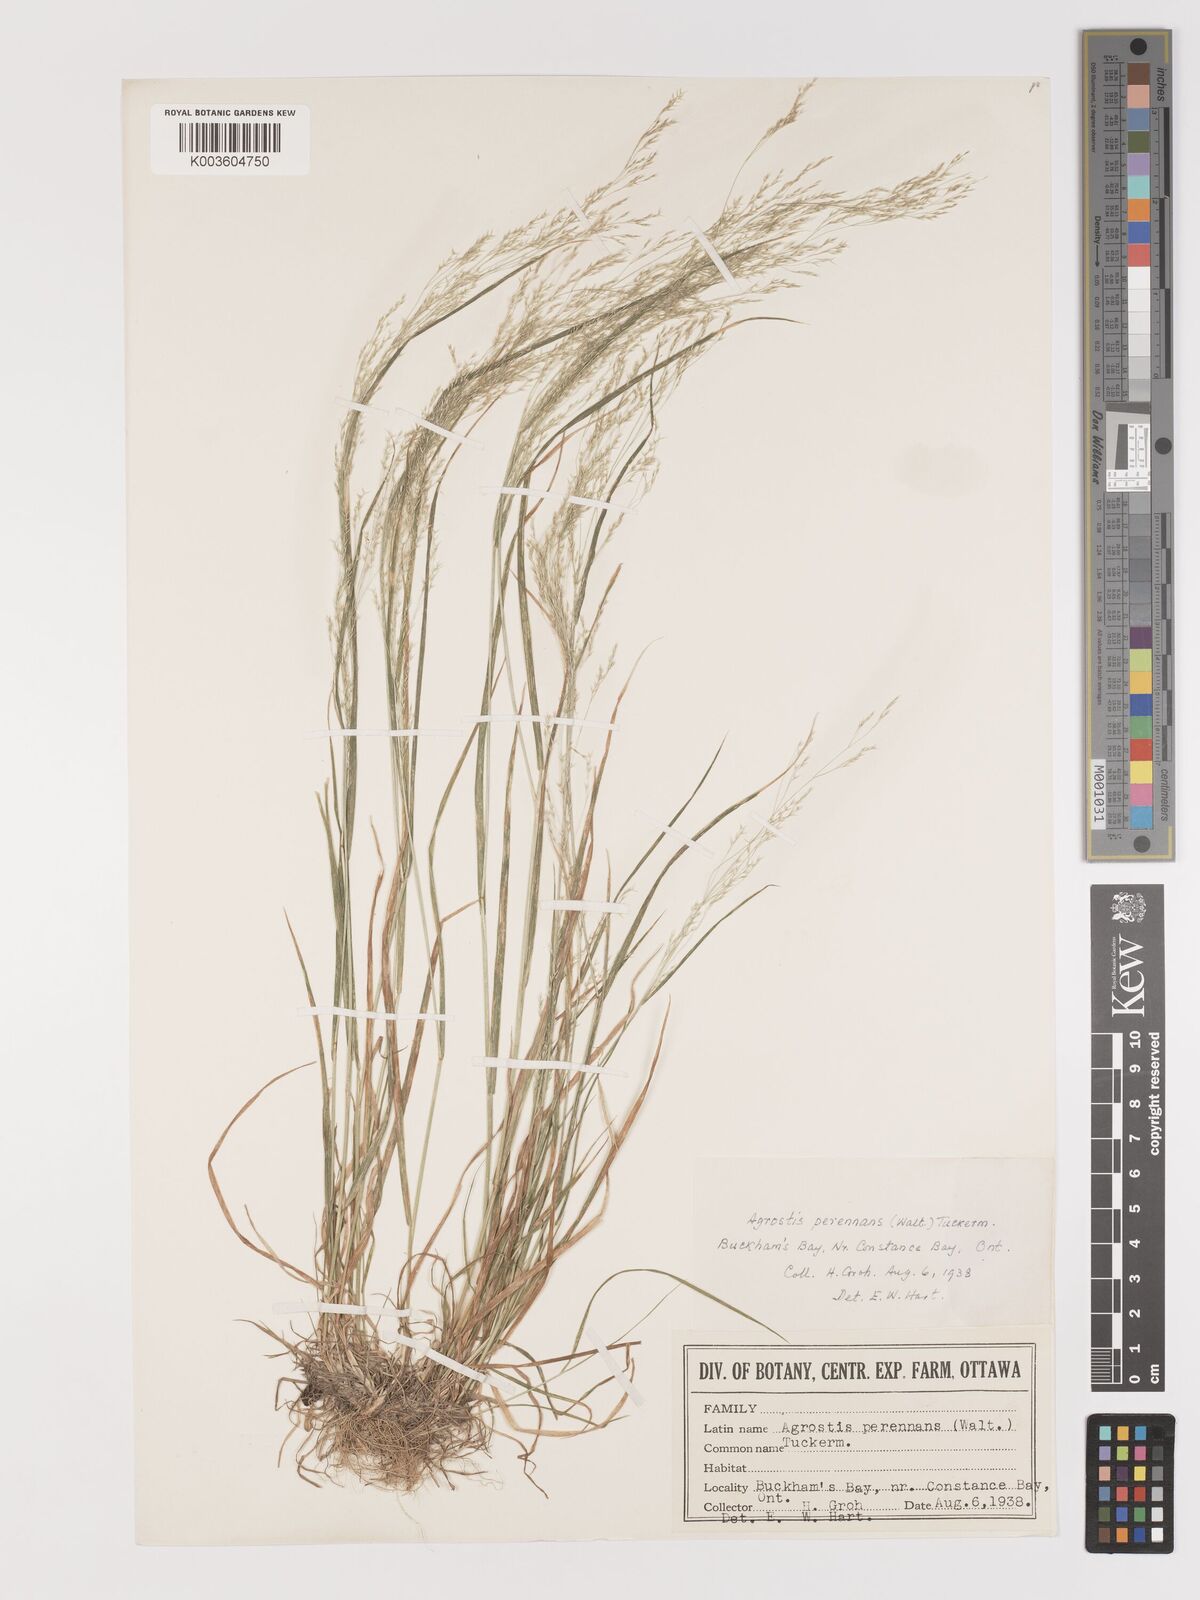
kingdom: Plantae
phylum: Tracheophyta
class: Liliopsida
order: Poales
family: Poaceae
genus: Agrostis
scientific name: Agrostis perennans
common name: Autumn bent
